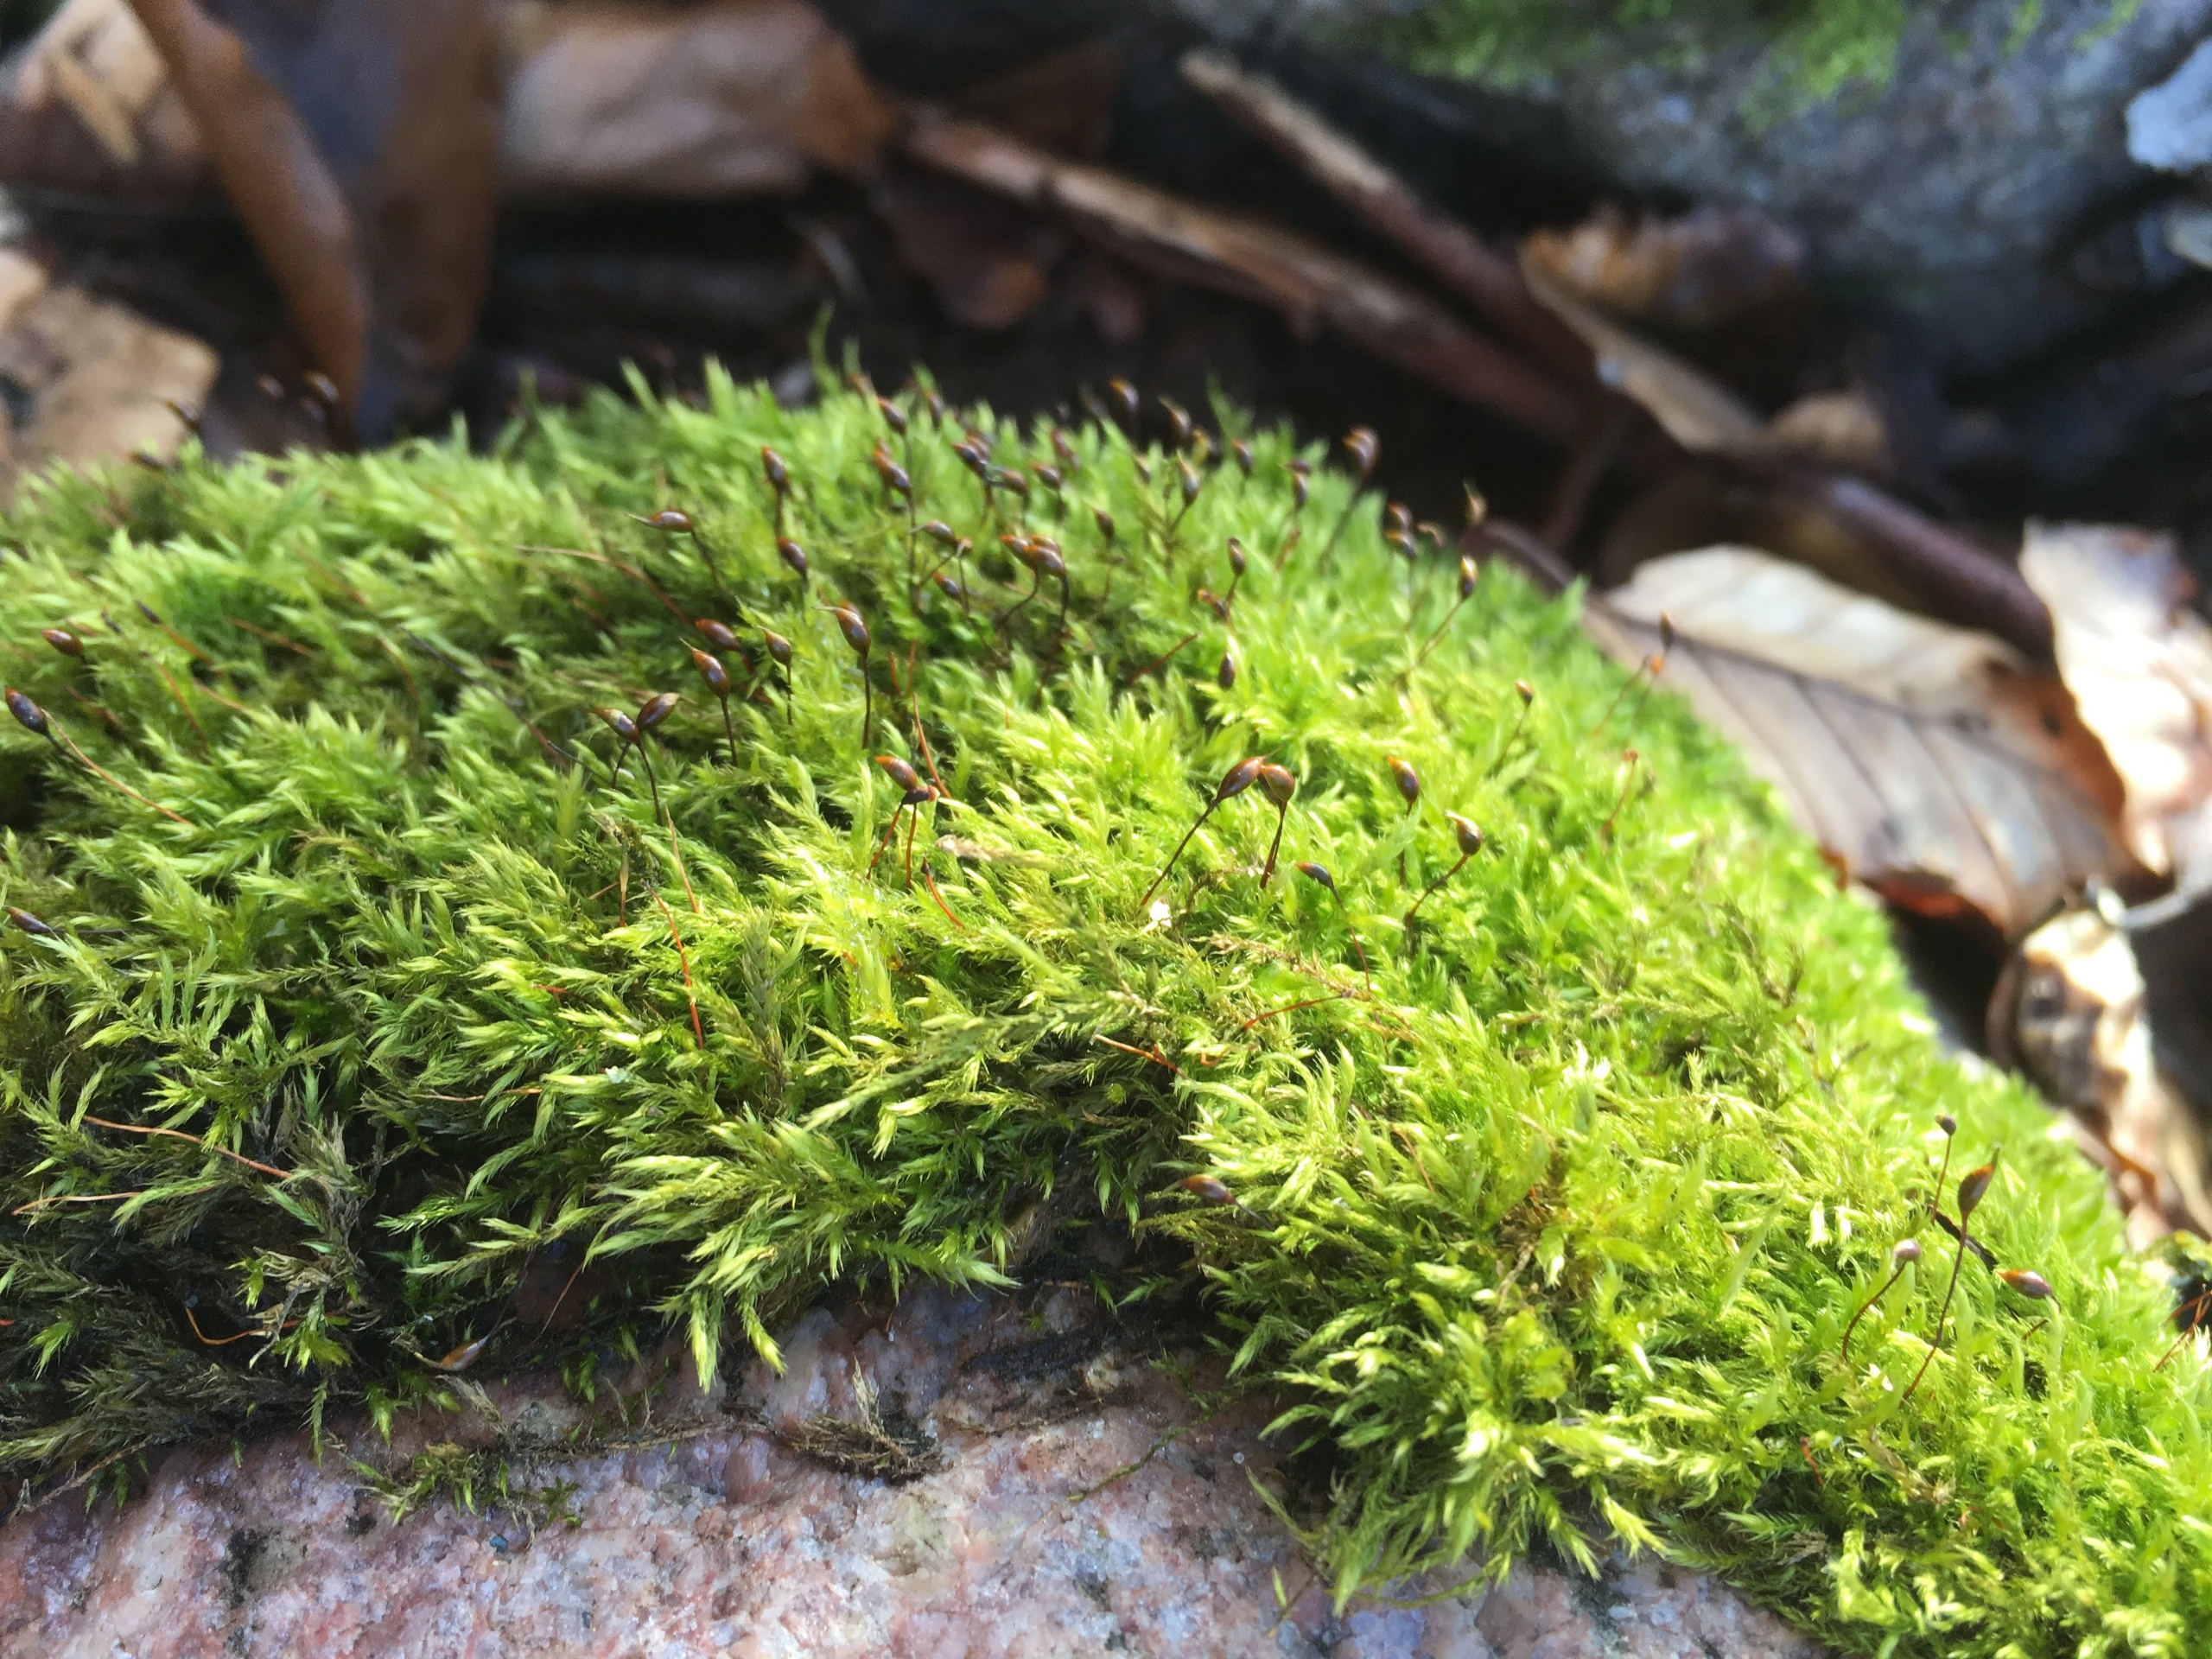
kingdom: Plantae
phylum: Bryophyta
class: Bryopsida
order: Hypnales
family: Brachytheciaceae
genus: Sciuro-hypnum
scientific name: Sciuro-hypnum populeum
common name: Park-kortkapsel
